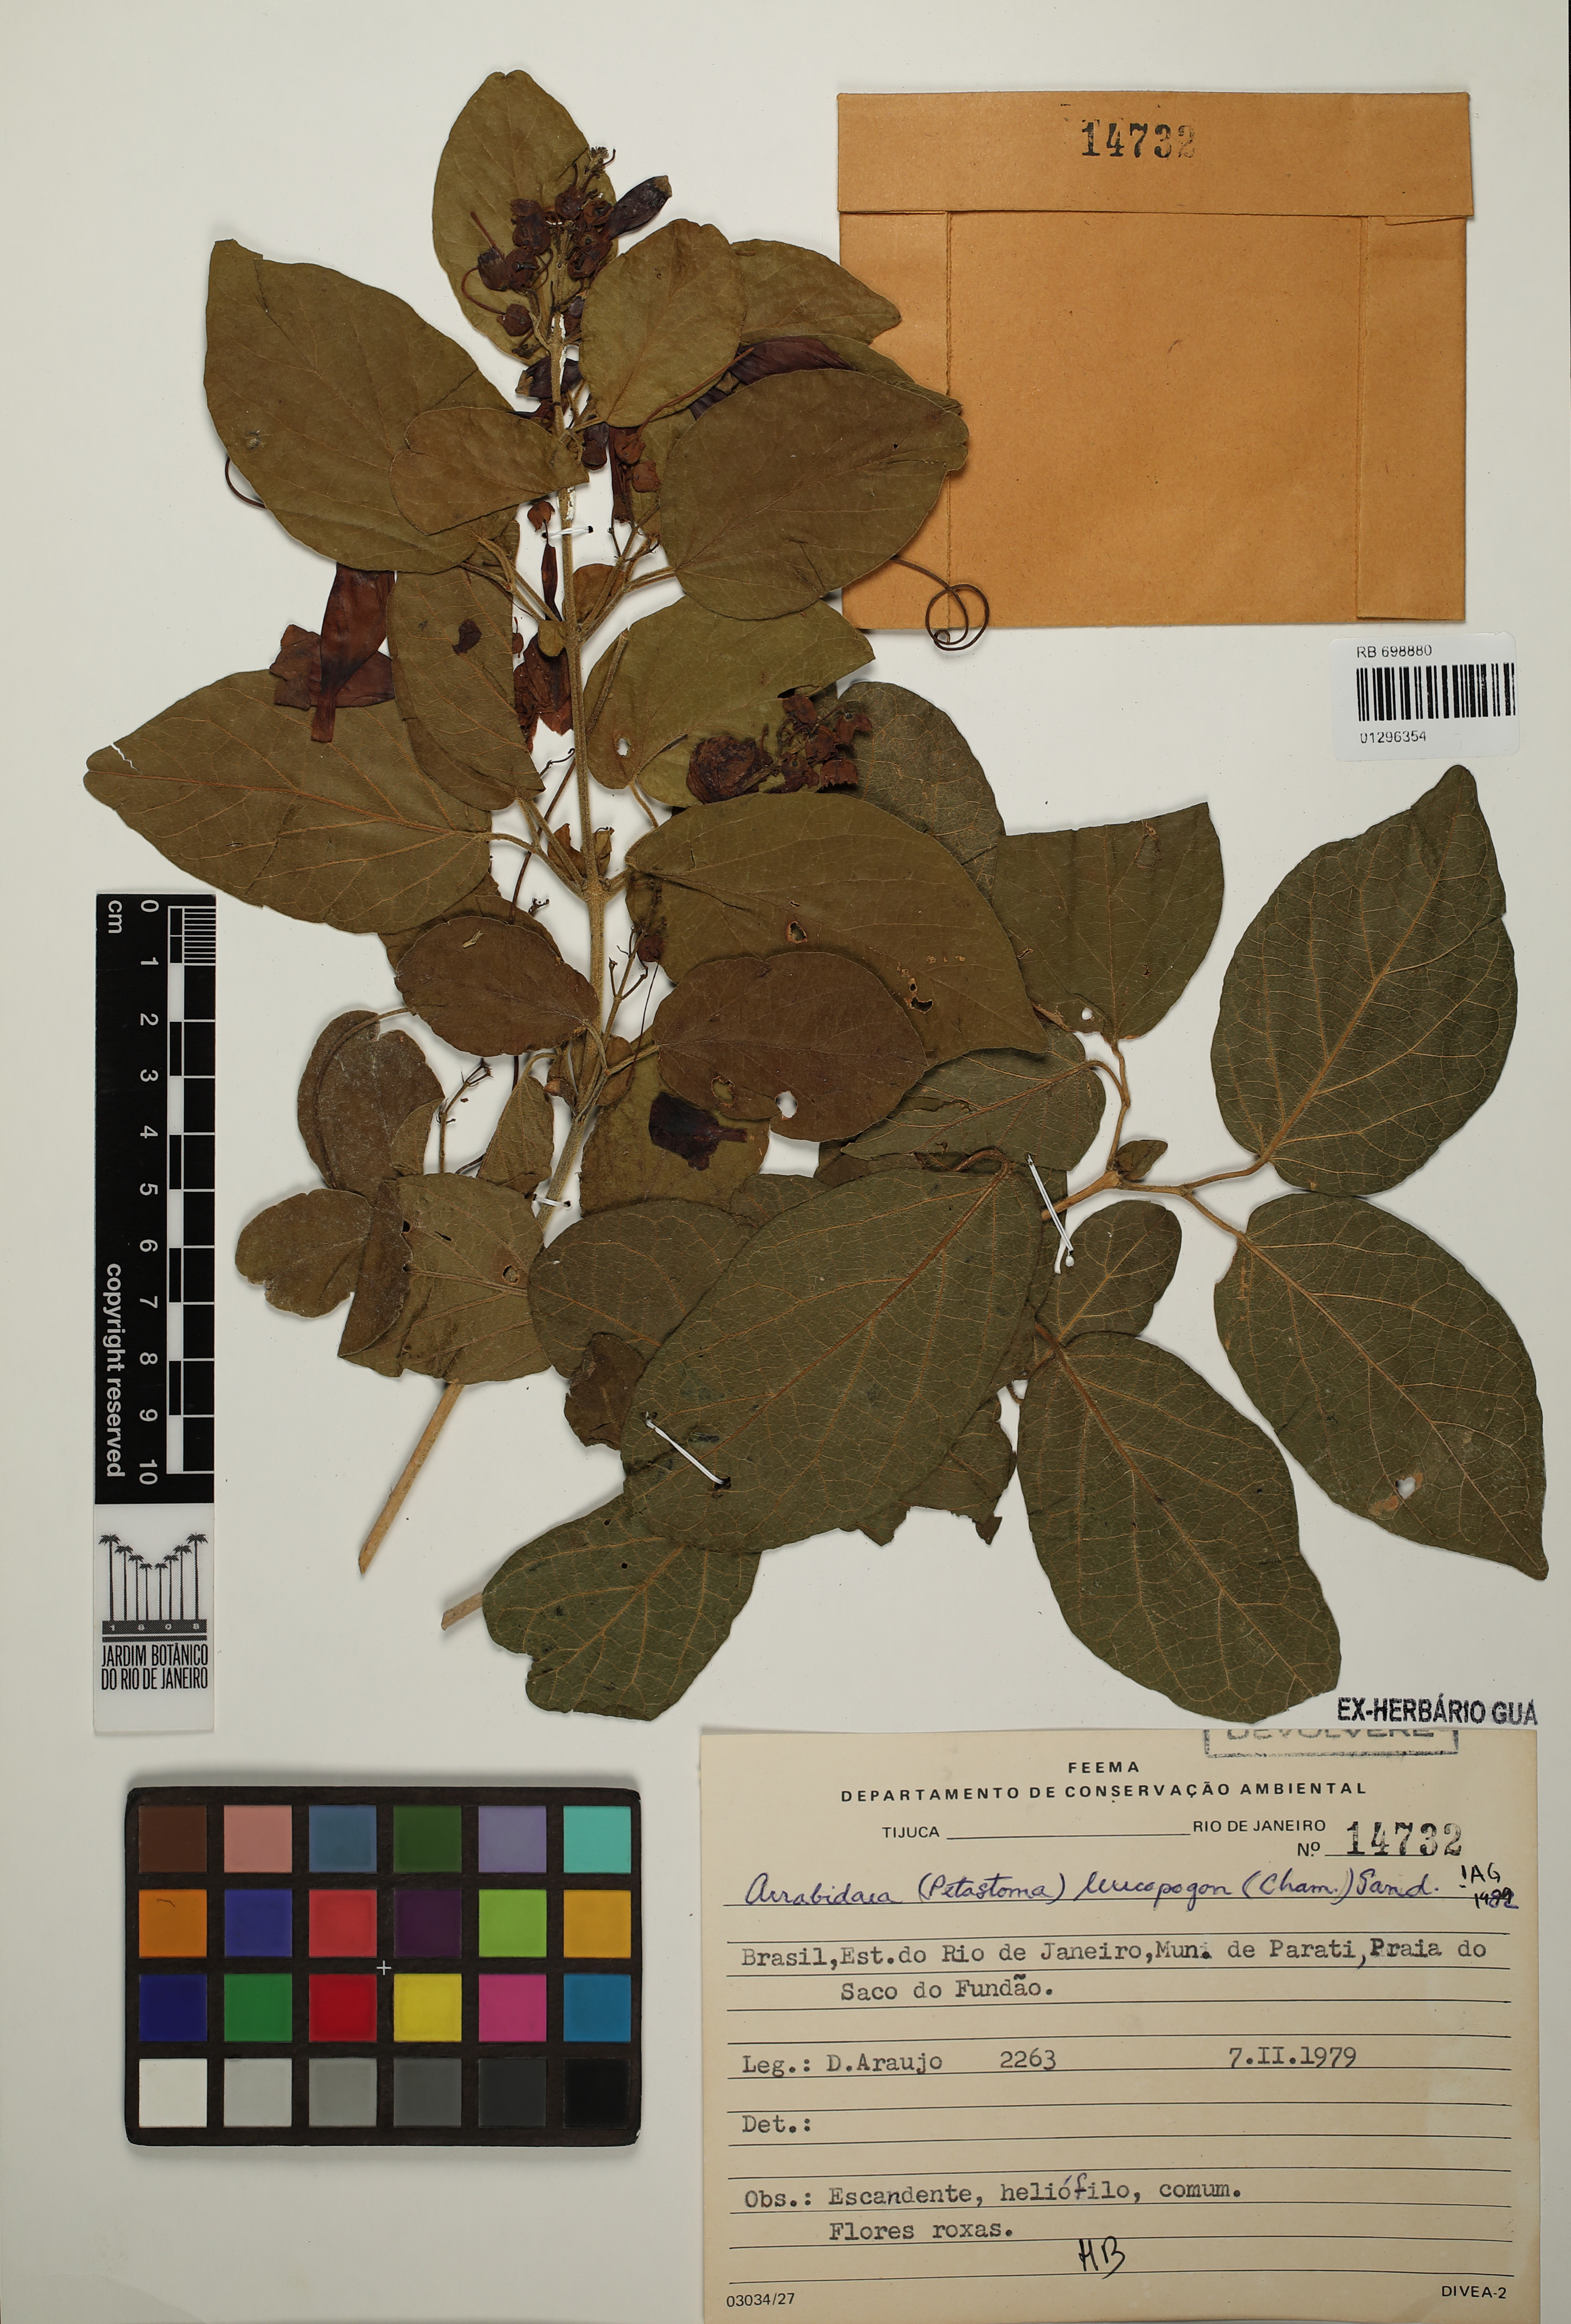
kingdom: Plantae
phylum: Tracheophyta
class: Magnoliopsida
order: Lamiales
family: Bignoniaceae
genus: Fridericia
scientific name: Fridericia leucopogon
